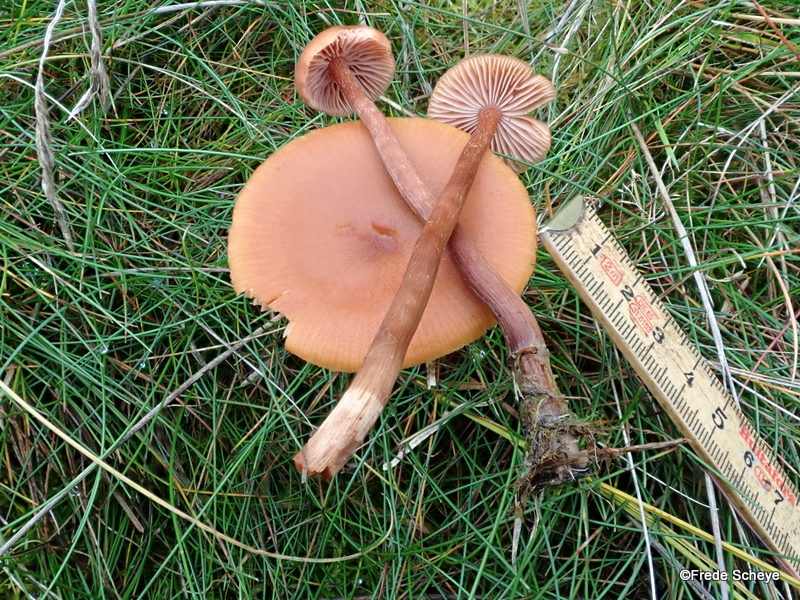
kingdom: Fungi
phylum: Basidiomycota
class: Agaricomycetes
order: Agaricales
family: Hydnangiaceae
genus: Laccaria
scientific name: Laccaria proxima
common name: stor ametysthat
